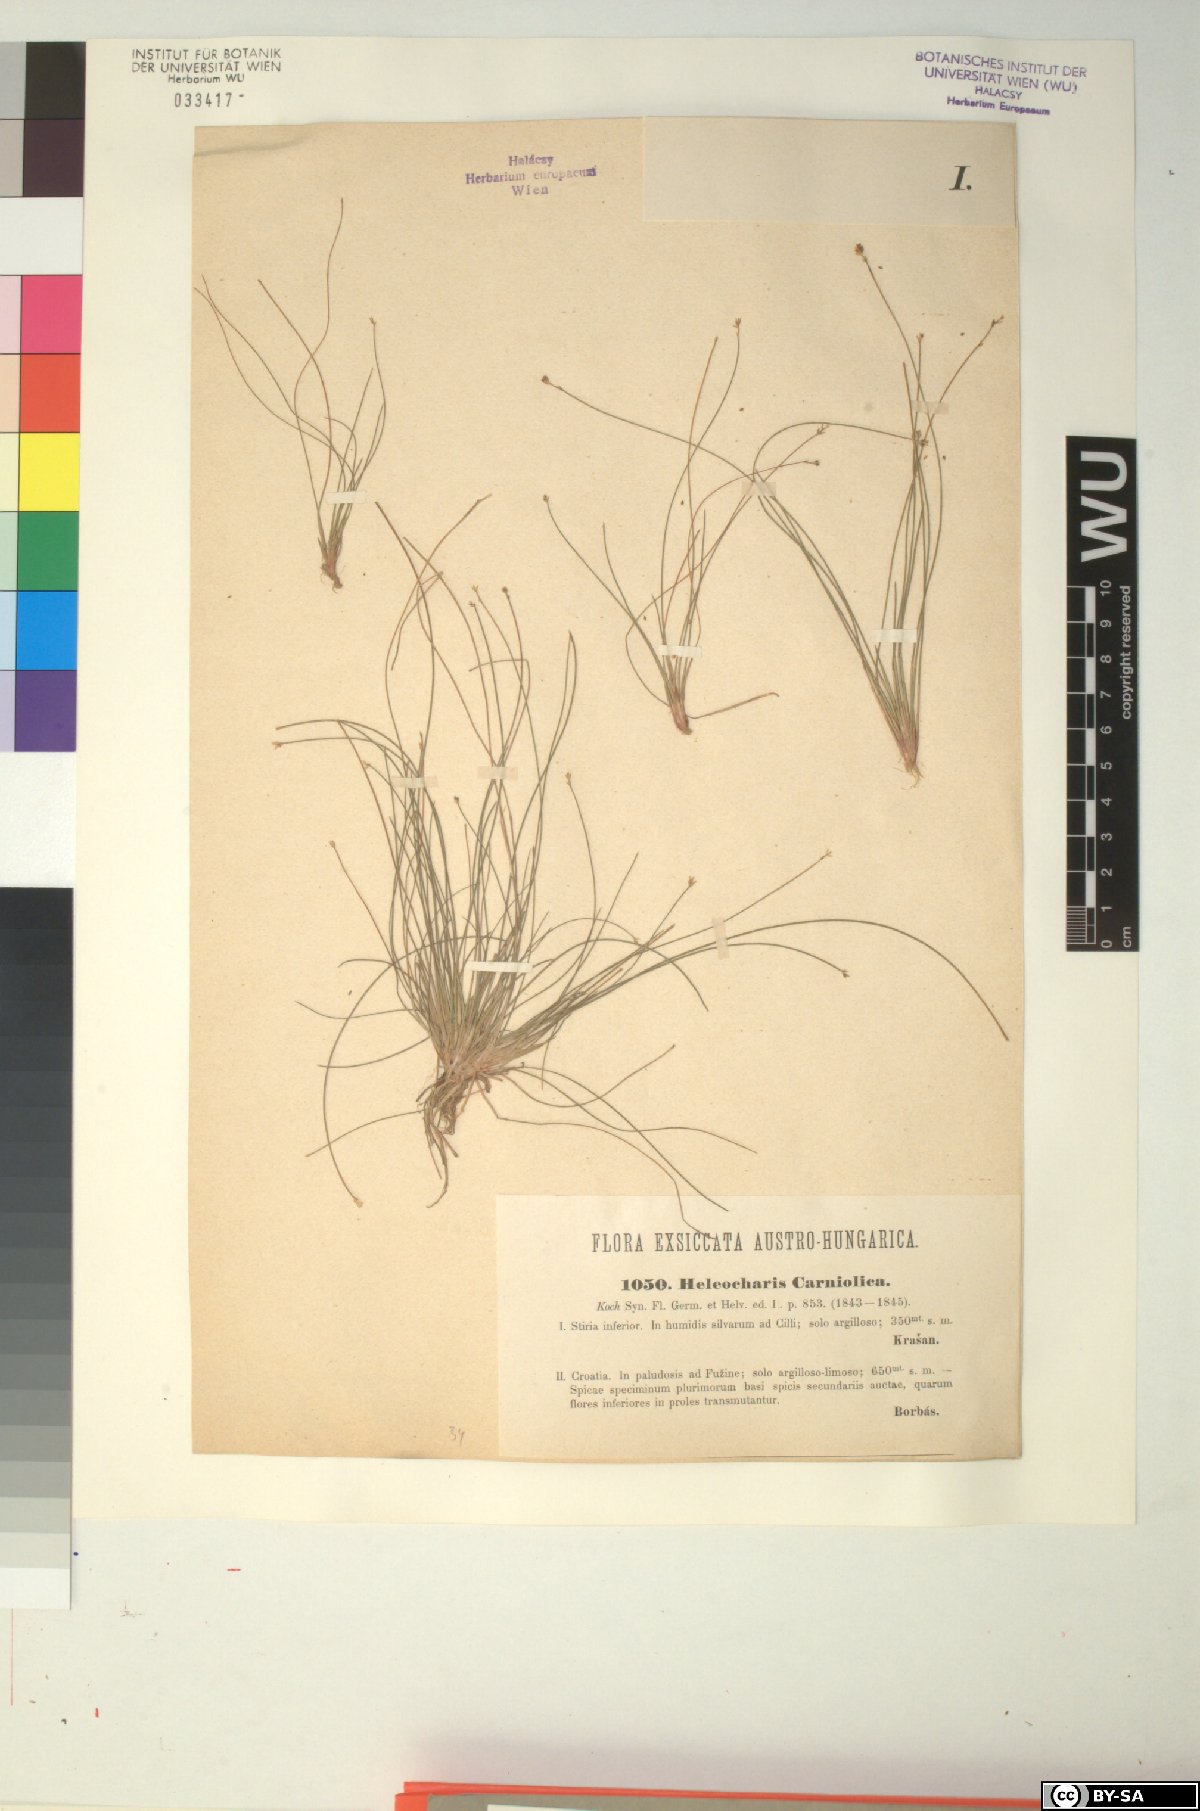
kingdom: Plantae
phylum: Tracheophyta
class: Liliopsida
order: Poales
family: Cyperaceae
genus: Eleocharis
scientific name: Eleocharis carniolica
